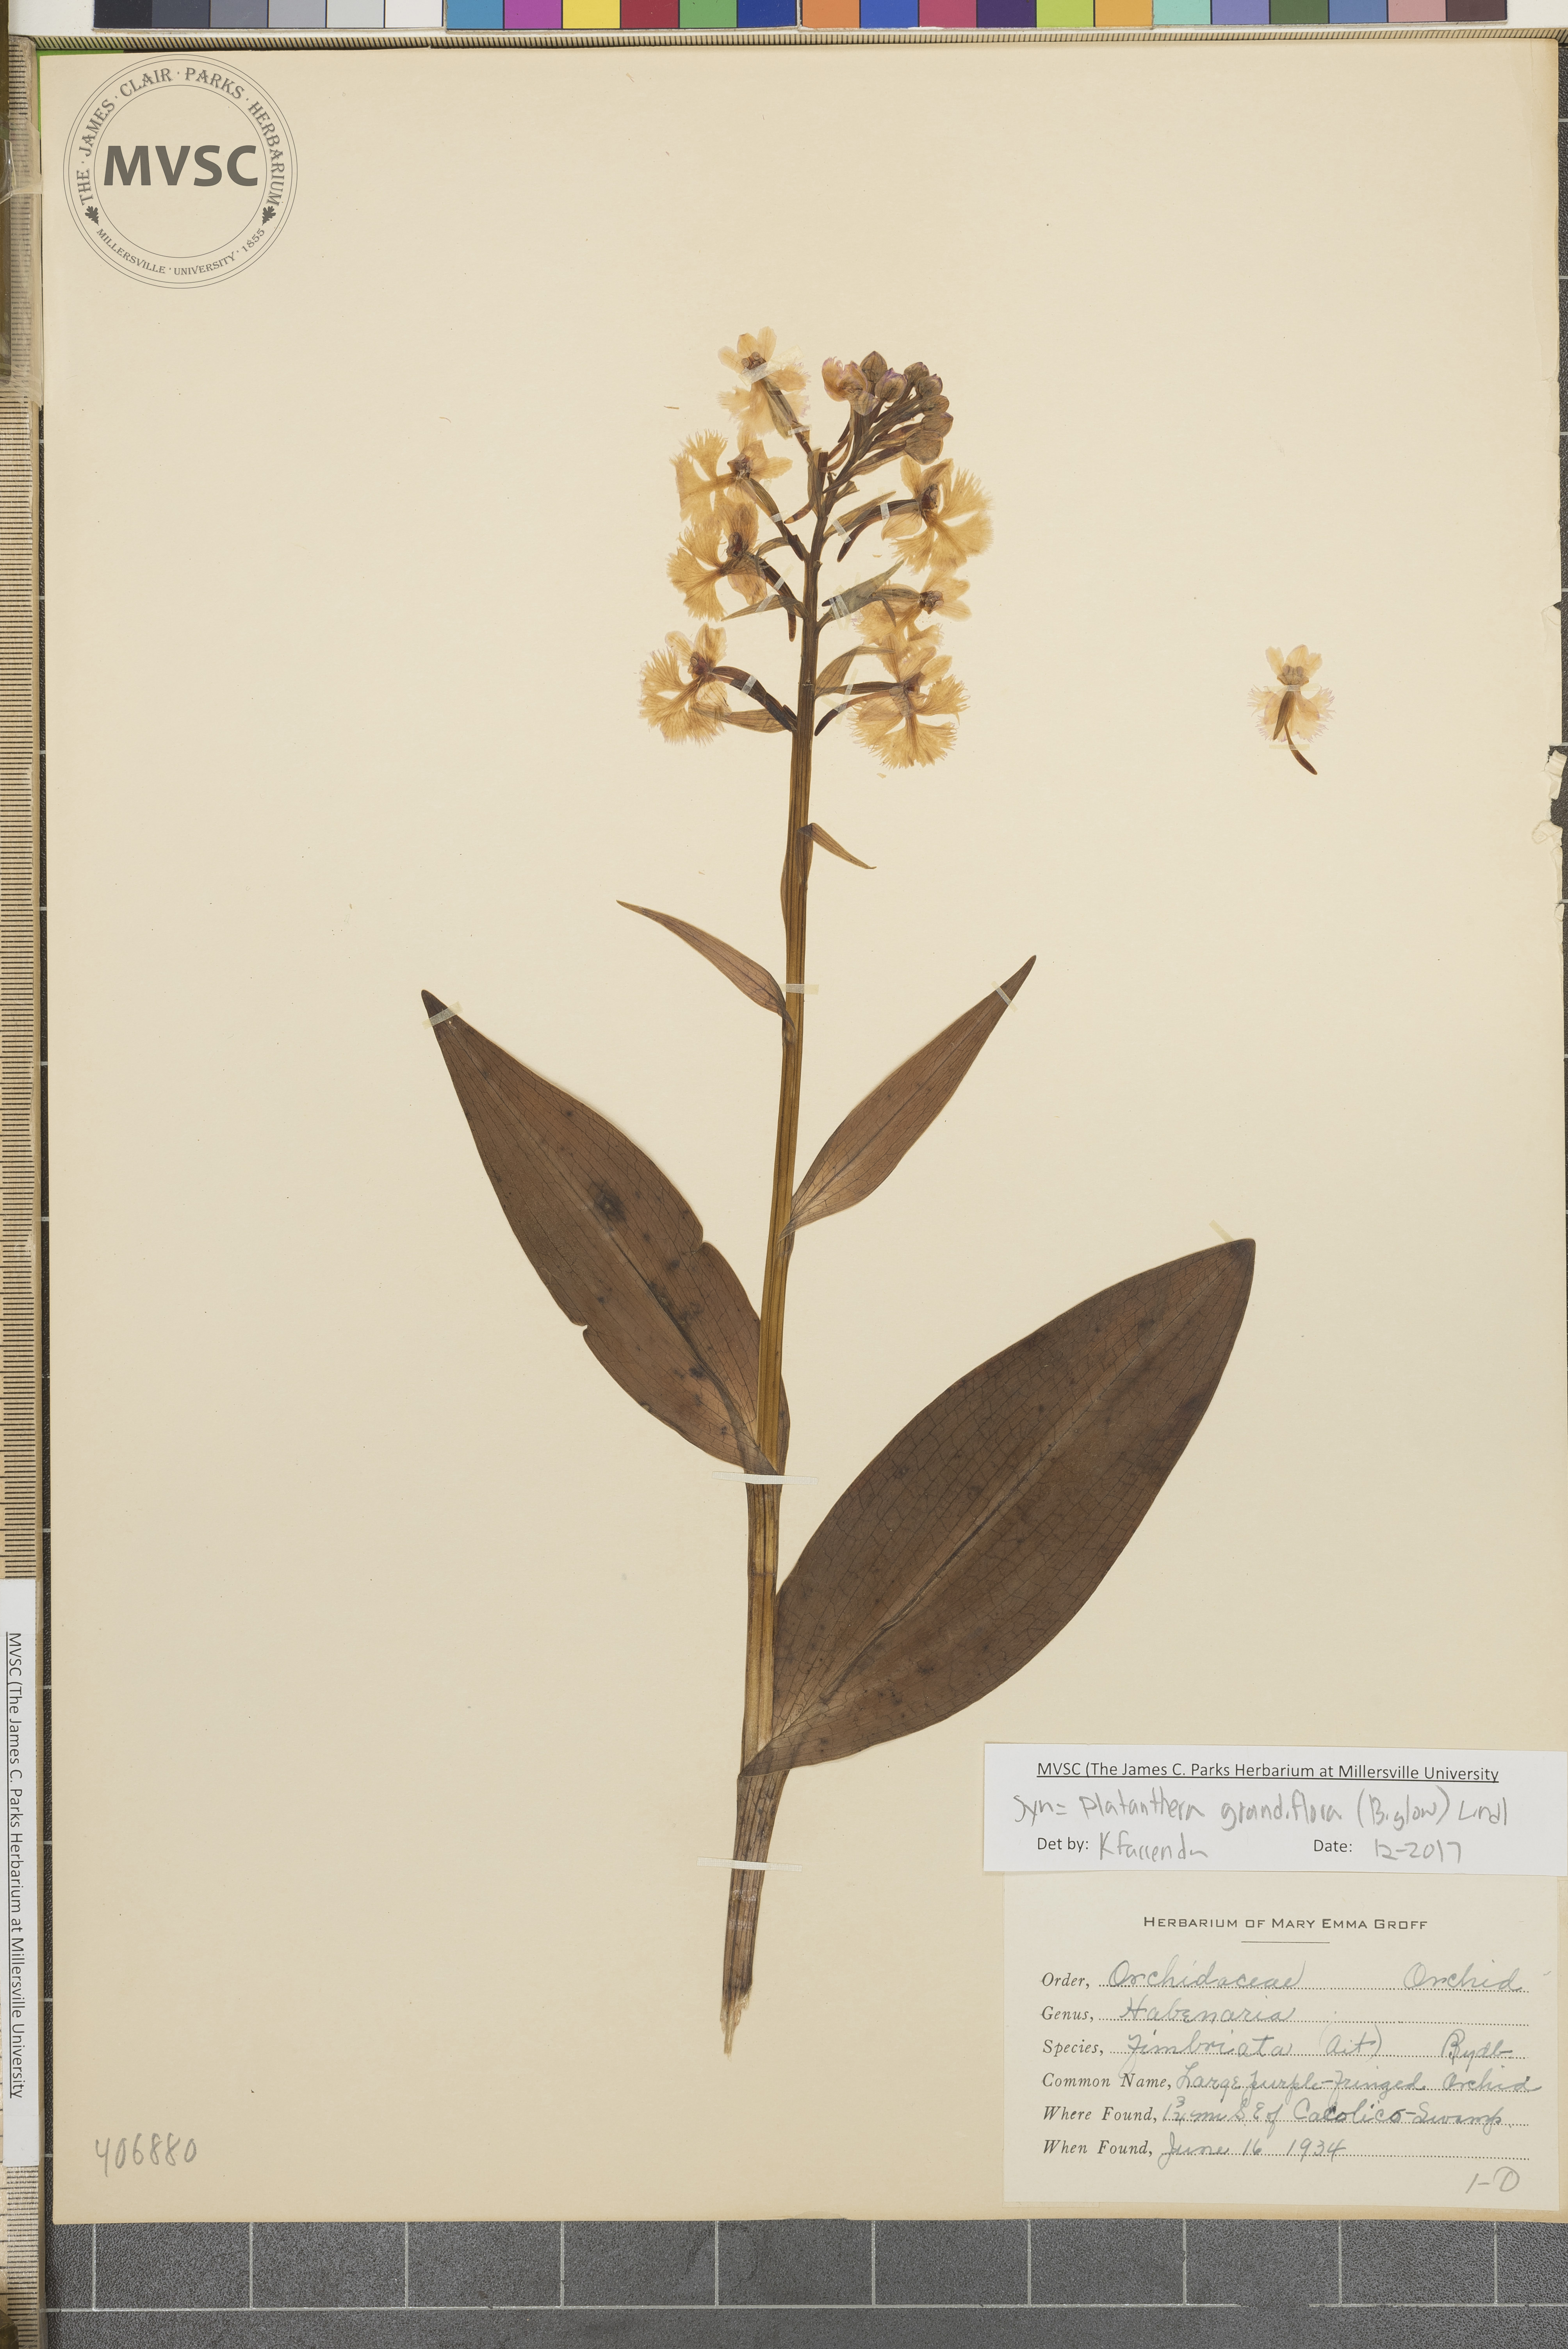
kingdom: Plantae
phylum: Tracheophyta
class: Liliopsida
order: Asparagales
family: Orchidaceae
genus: Platanthera
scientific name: Platanthera grandiflora
